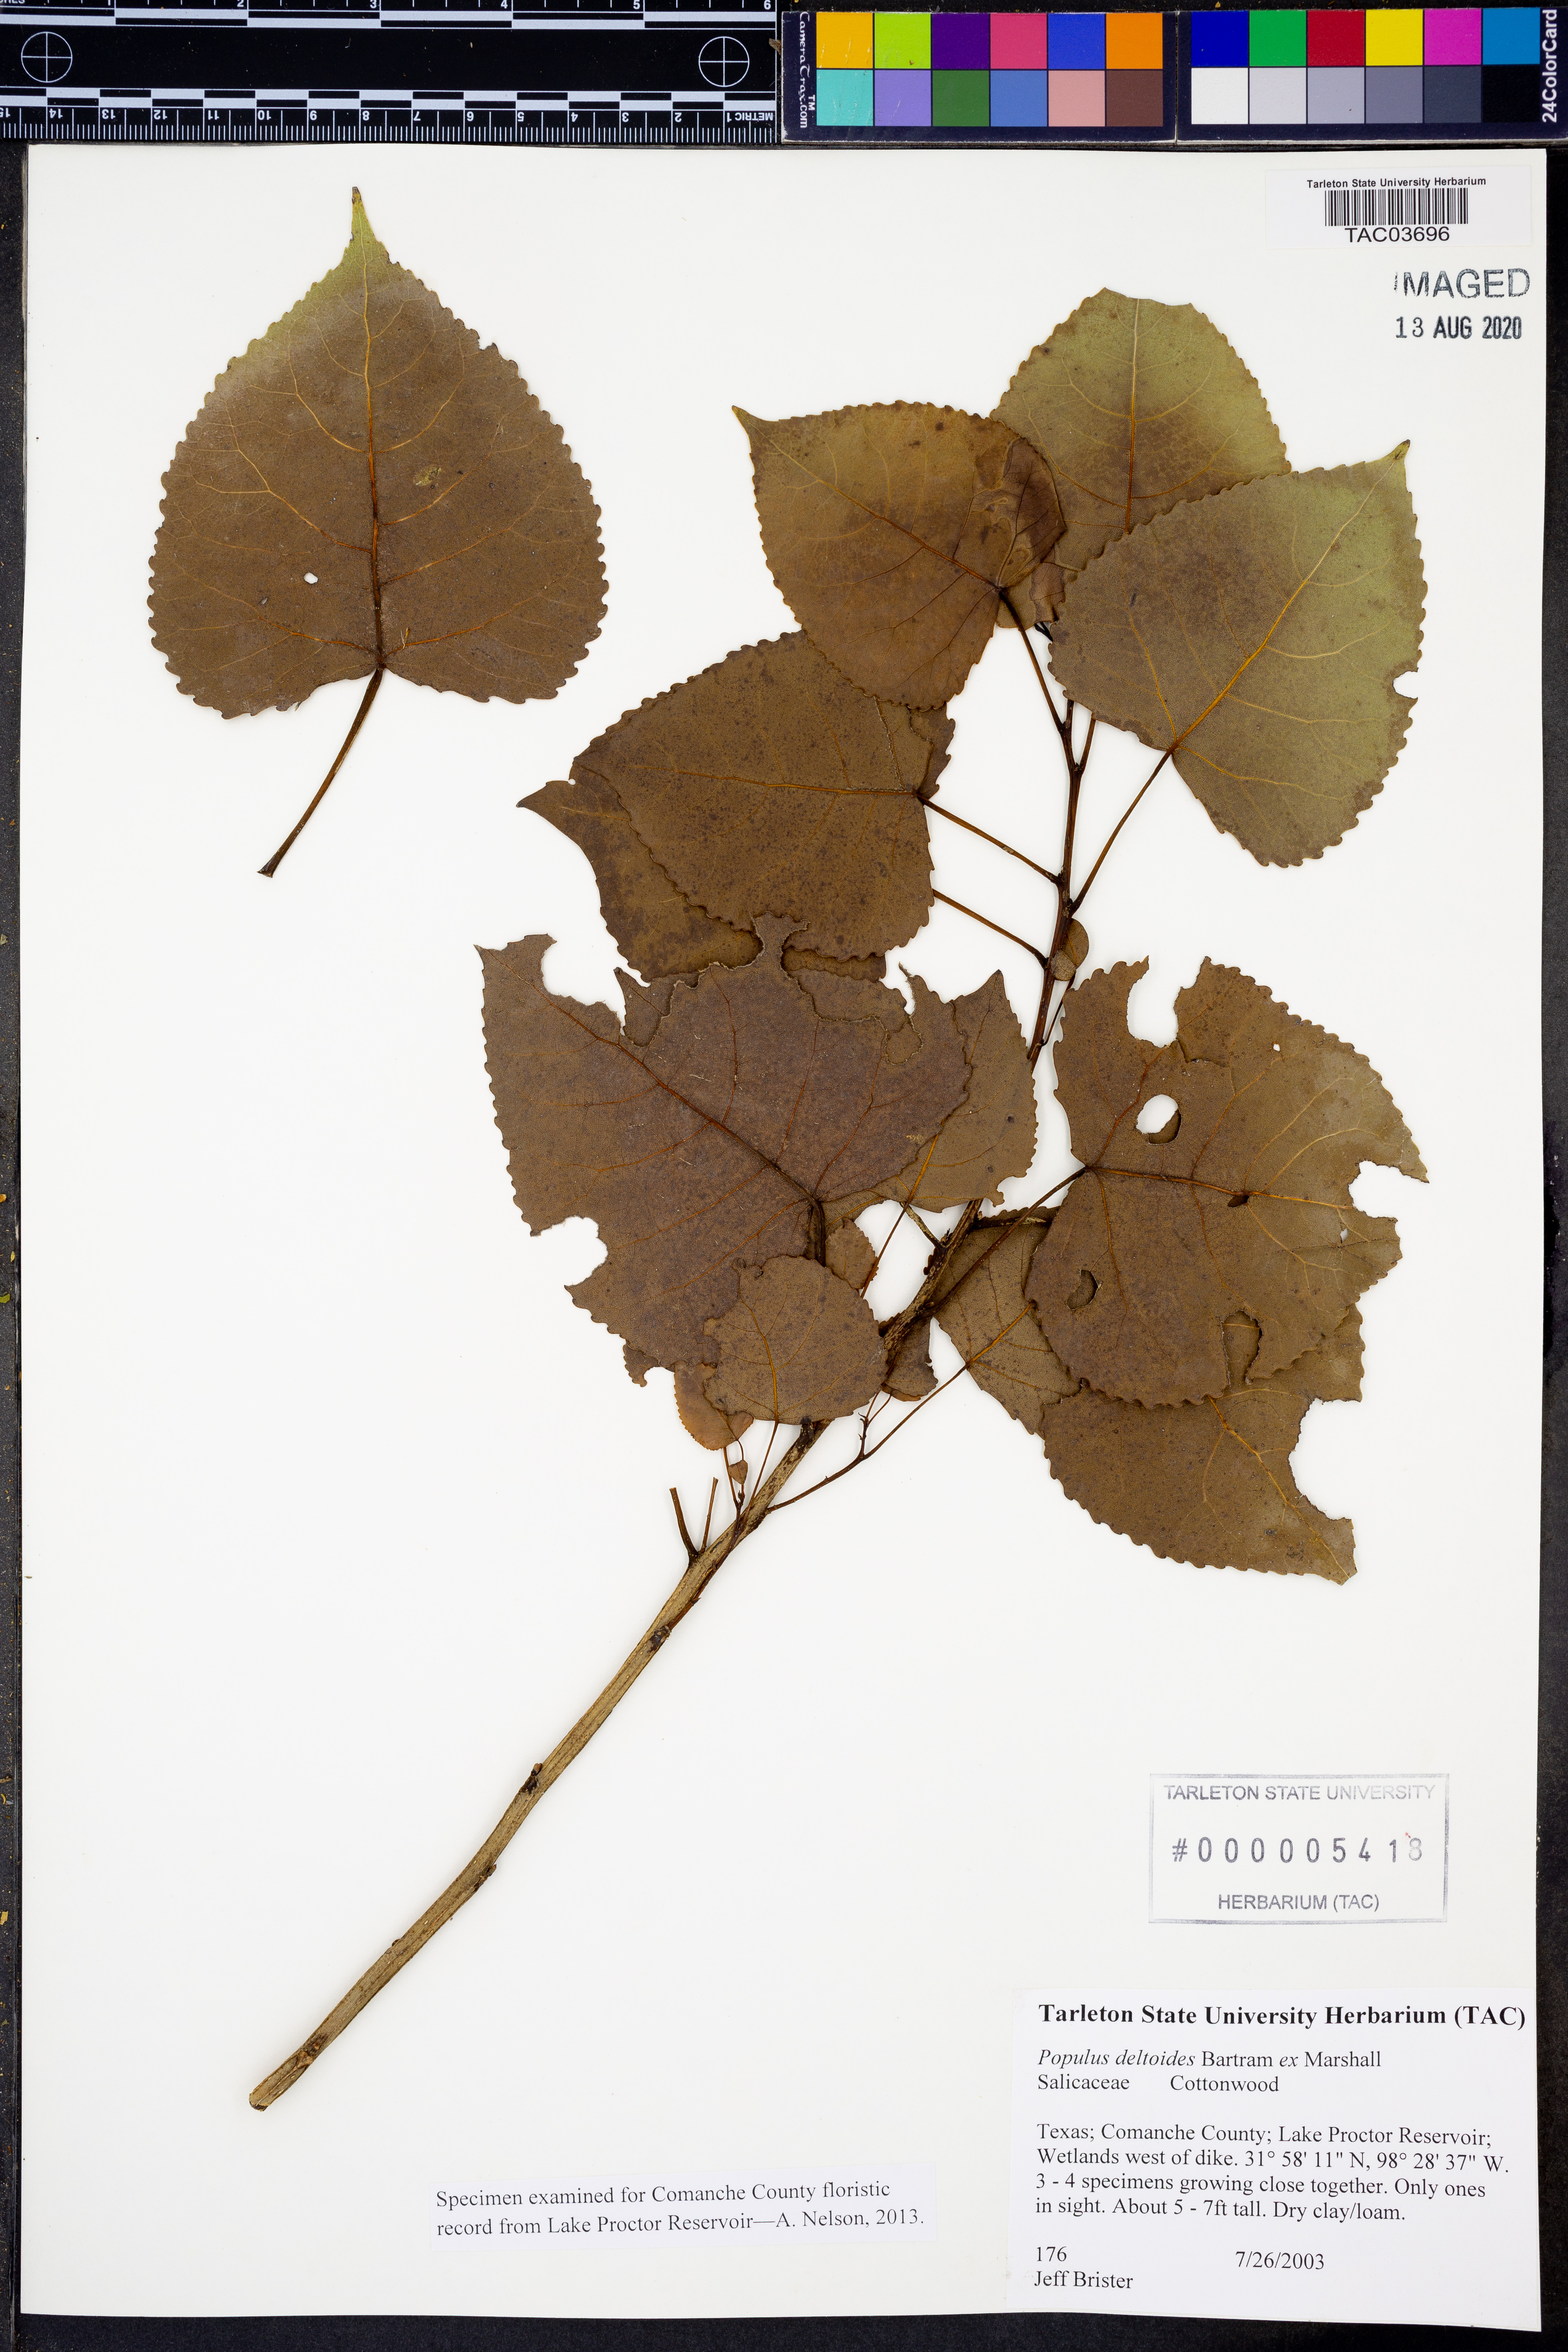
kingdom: Plantae
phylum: Tracheophyta
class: Magnoliopsida
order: Malpighiales
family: Salicaceae
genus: Populus
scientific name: Populus deltoides
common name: Eastern cottonwood
